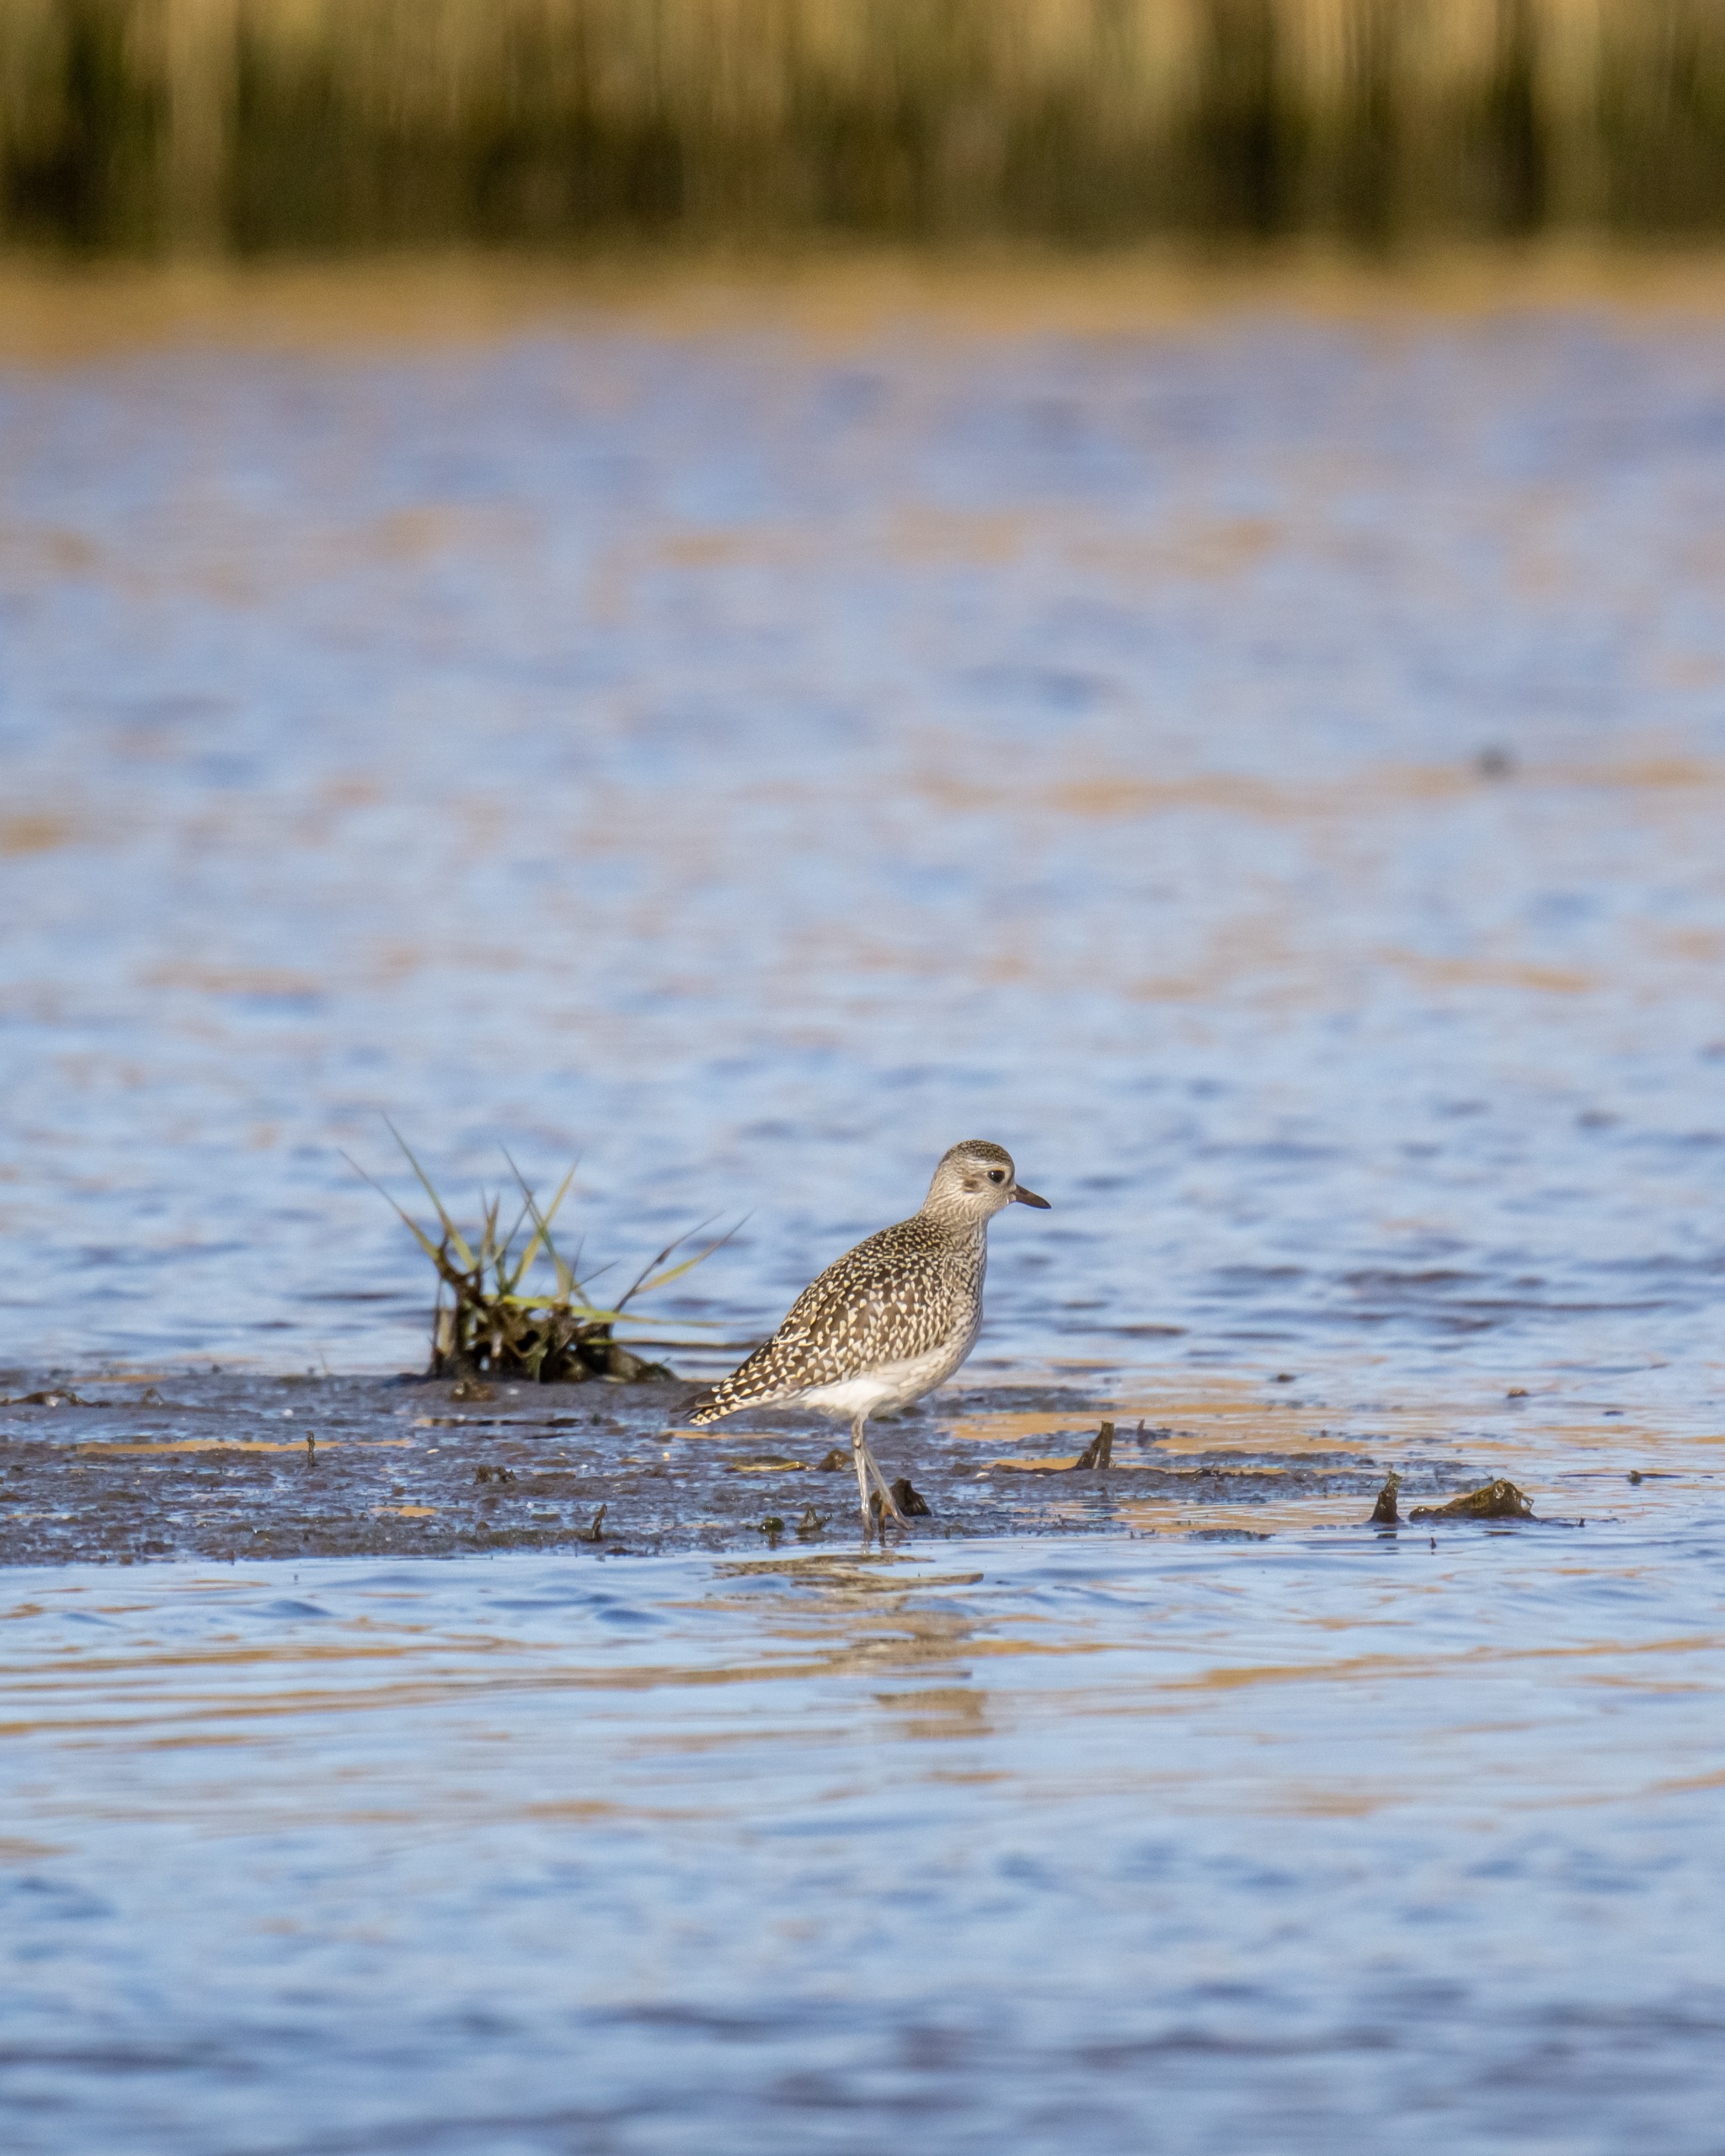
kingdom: Animalia
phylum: Chordata
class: Aves
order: Charadriiformes
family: Charadriidae
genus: Pluvialis
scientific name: Pluvialis squatarola
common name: Strandhjejle
